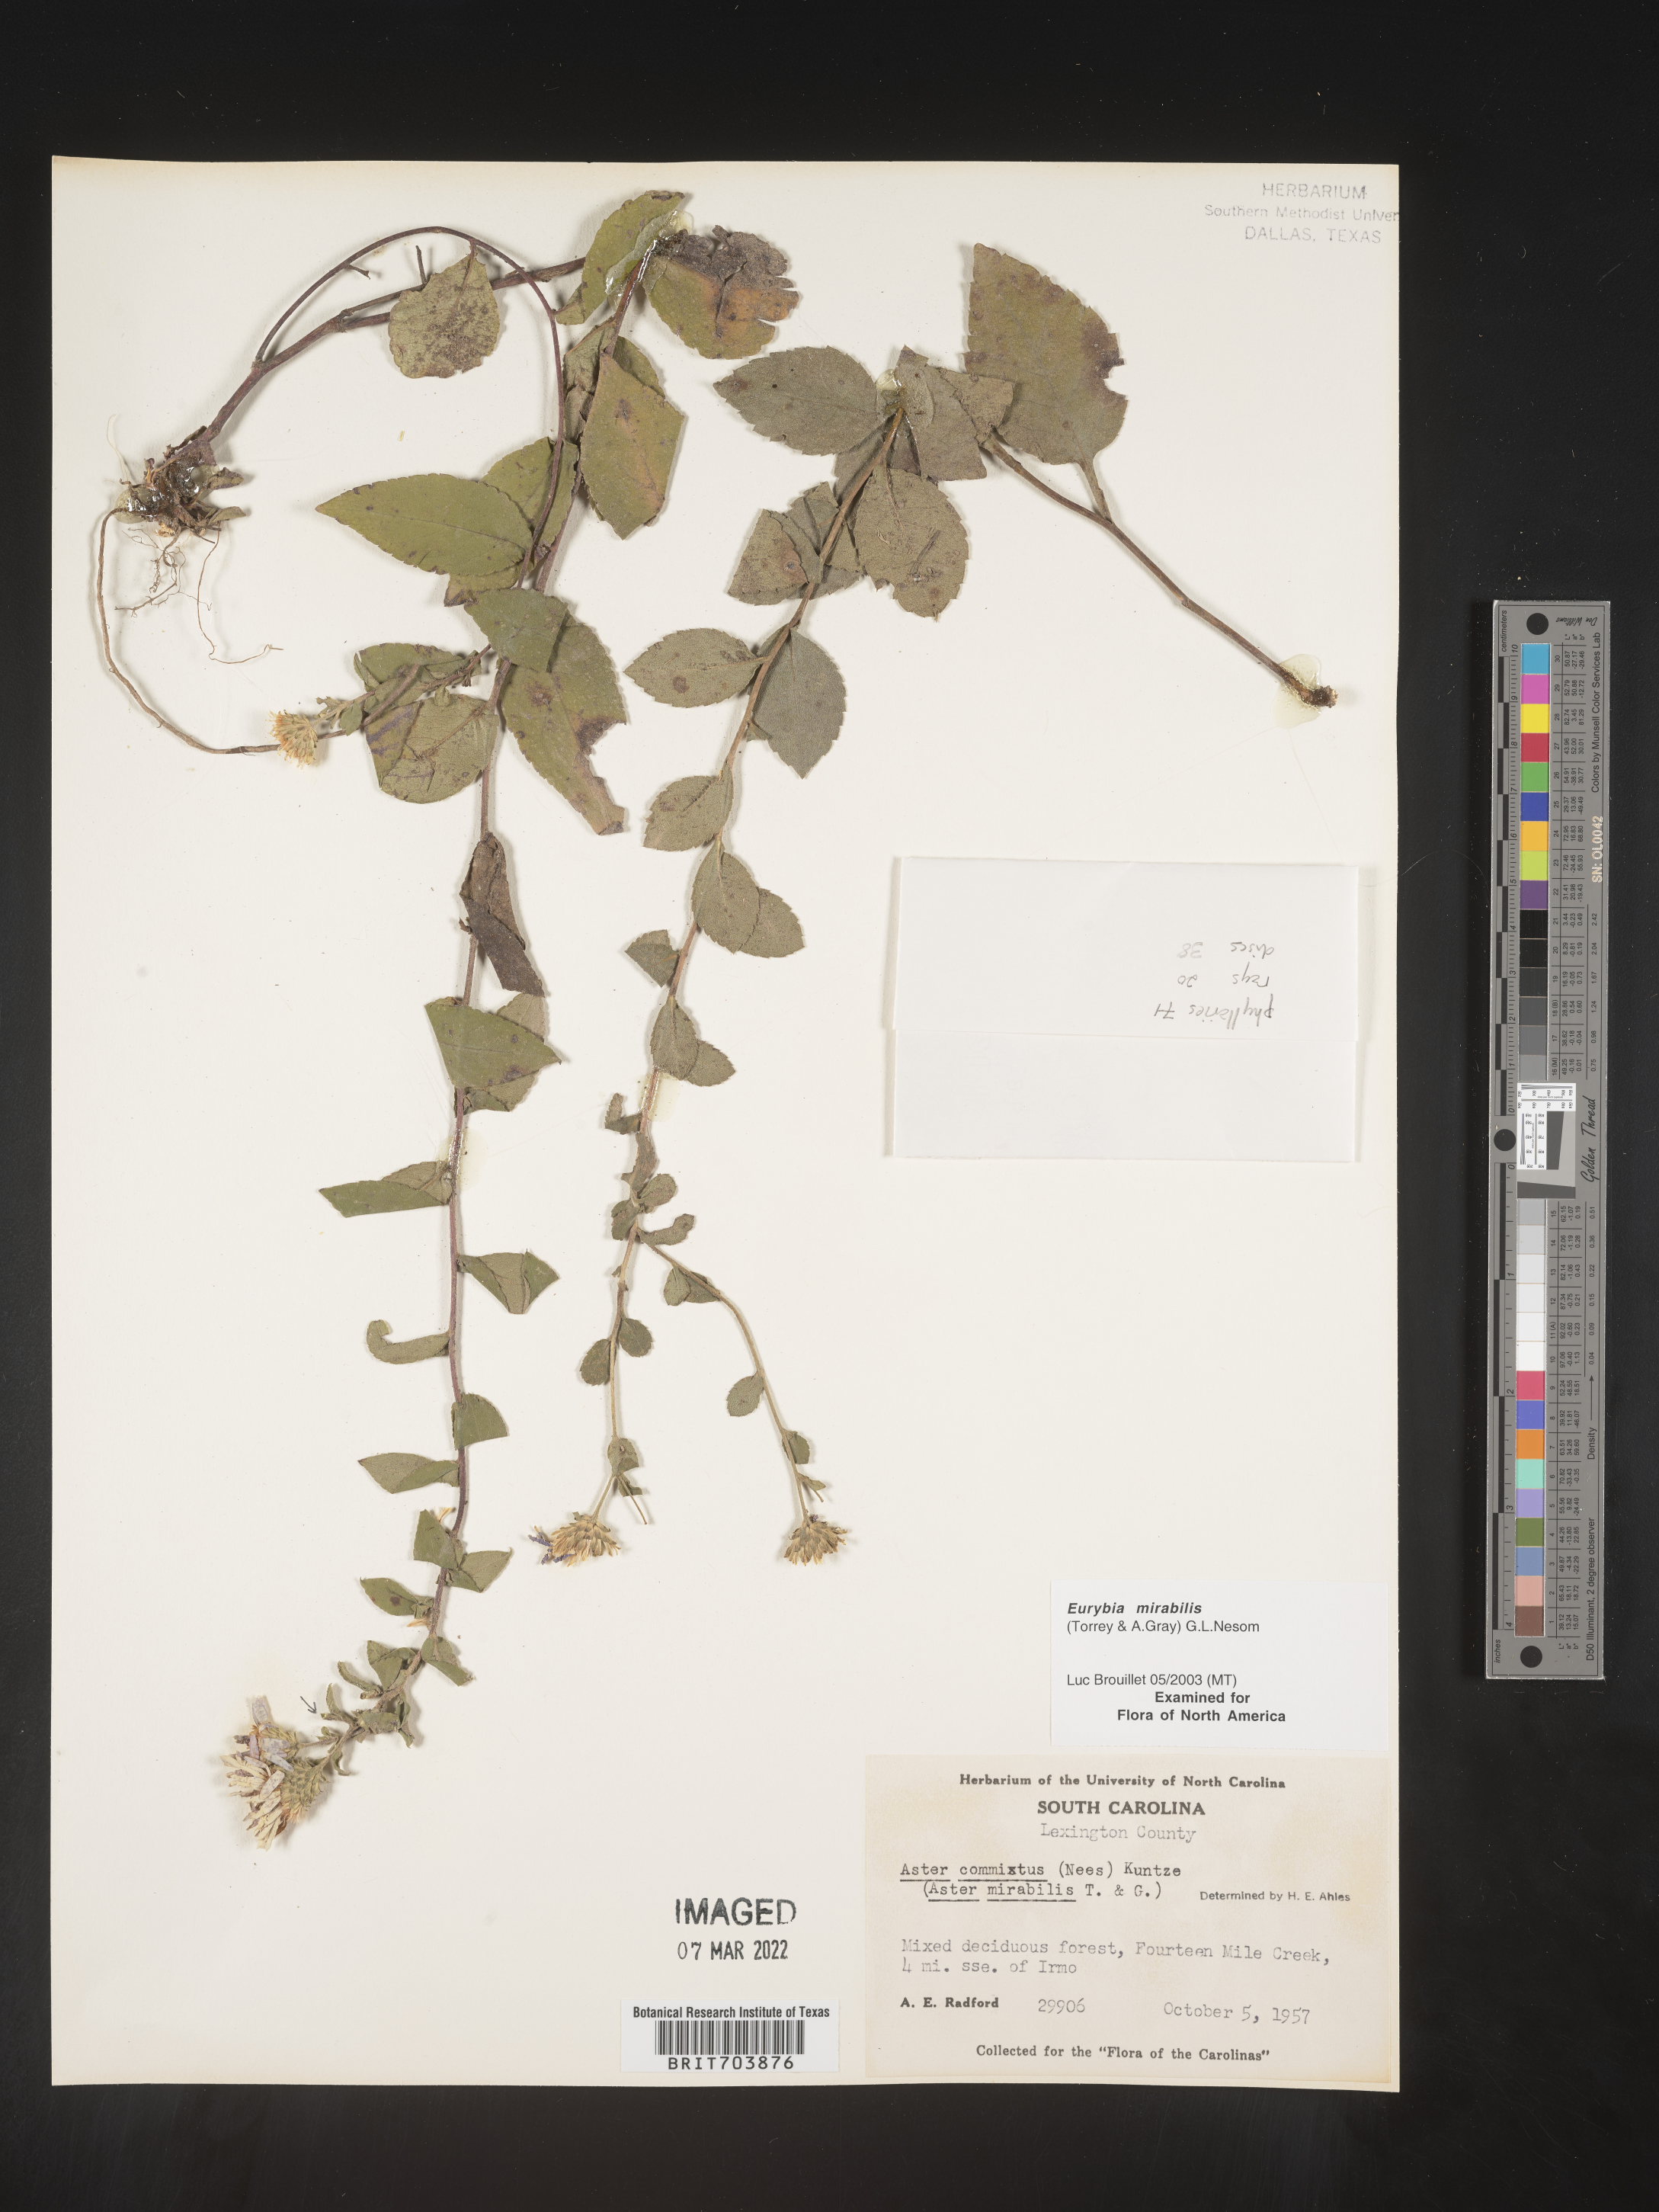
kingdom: Plantae
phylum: Tracheophyta
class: Magnoliopsida
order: Asterales
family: Asteraceae
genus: Eurybia
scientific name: Eurybia mirabilis
